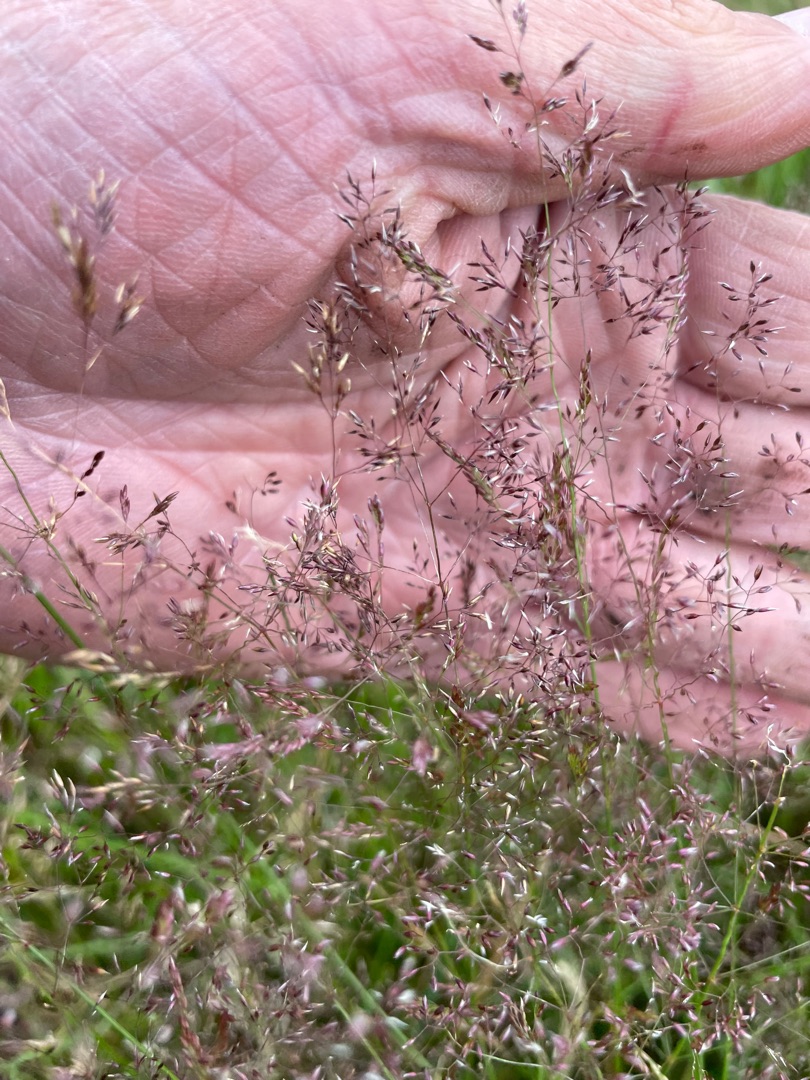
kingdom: Plantae
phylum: Tracheophyta
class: Liliopsida
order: Poales
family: Poaceae
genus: Agrostis
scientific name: Agrostis capillaris
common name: Almindelig hvene
